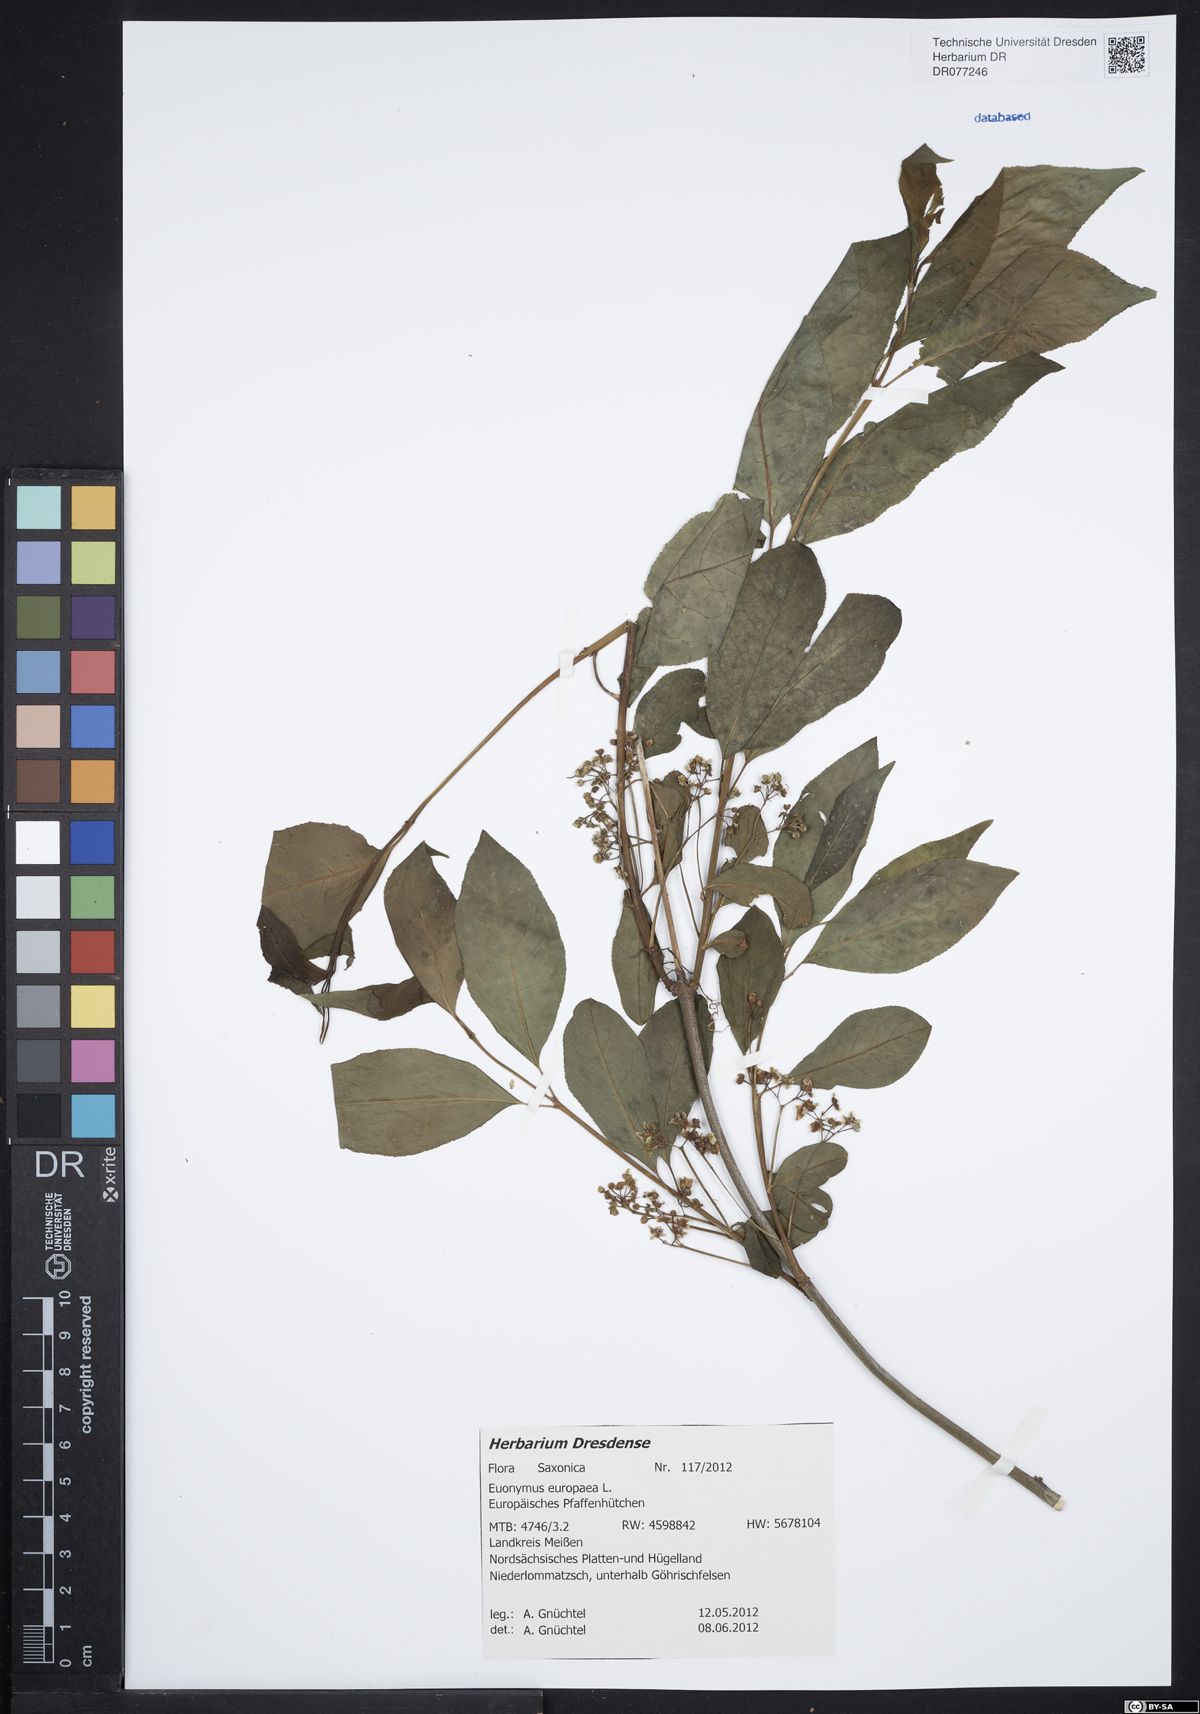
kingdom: Plantae
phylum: Tracheophyta
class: Magnoliopsida
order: Celastrales
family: Celastraceae
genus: Euonymus
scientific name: Euonymus europaeus
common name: Spindle
